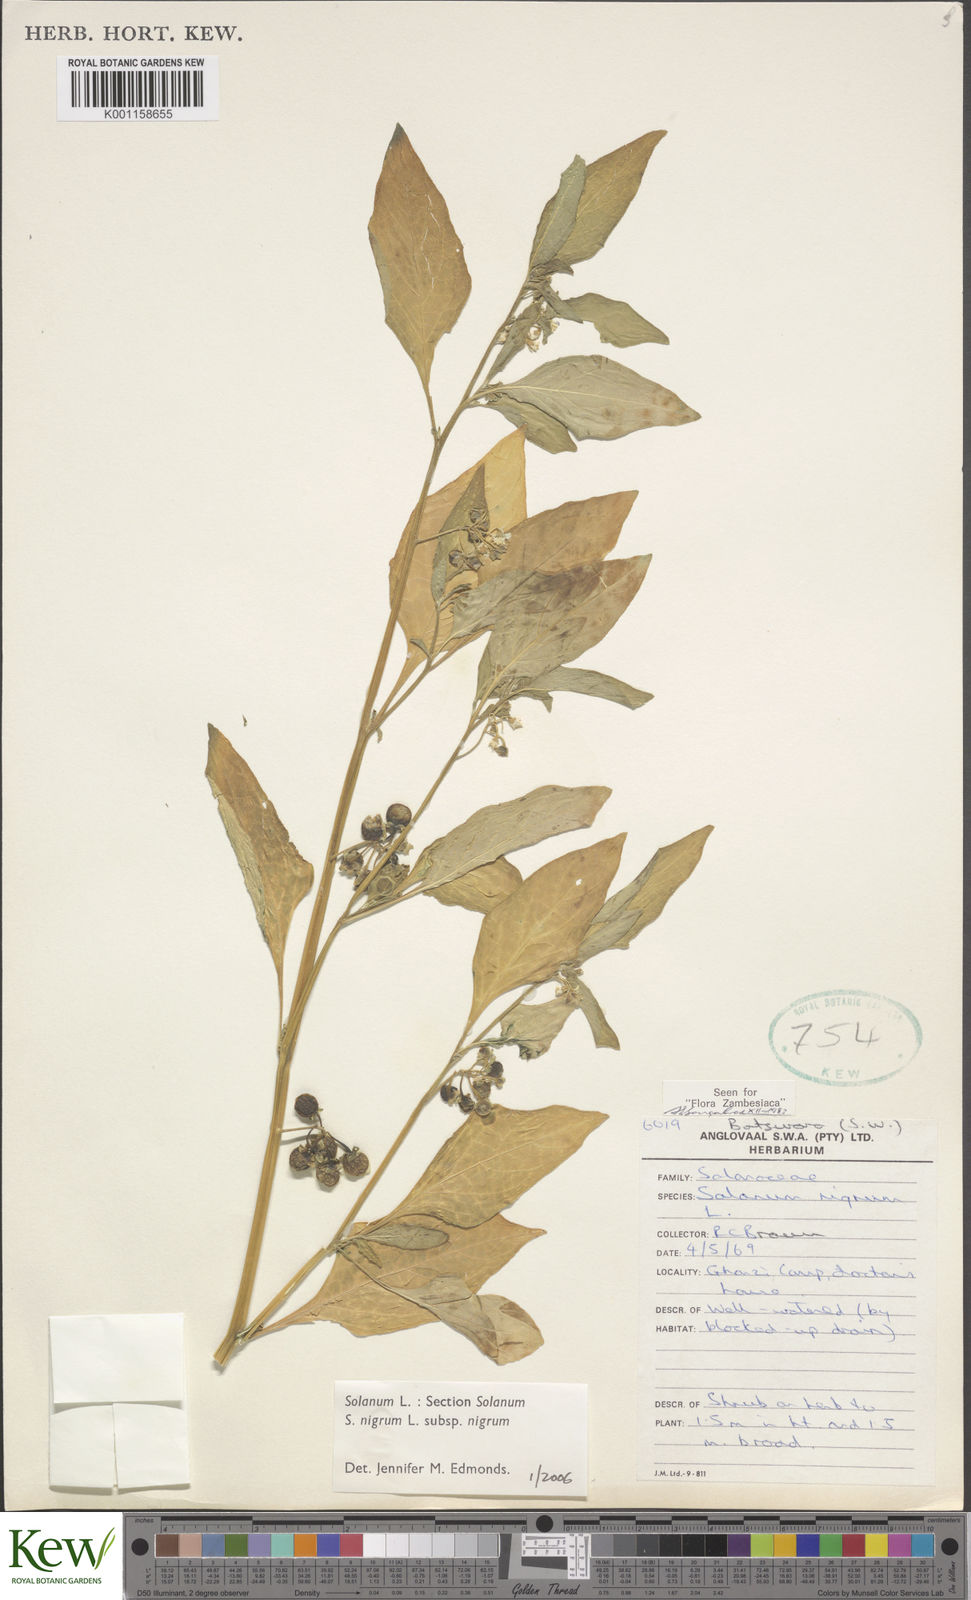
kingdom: Plantae
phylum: Tracheophyta
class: Magnoliopsida
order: Solanales
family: Solanaceae
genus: Solanum
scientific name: Solanum nigrum
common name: Black nightshade
